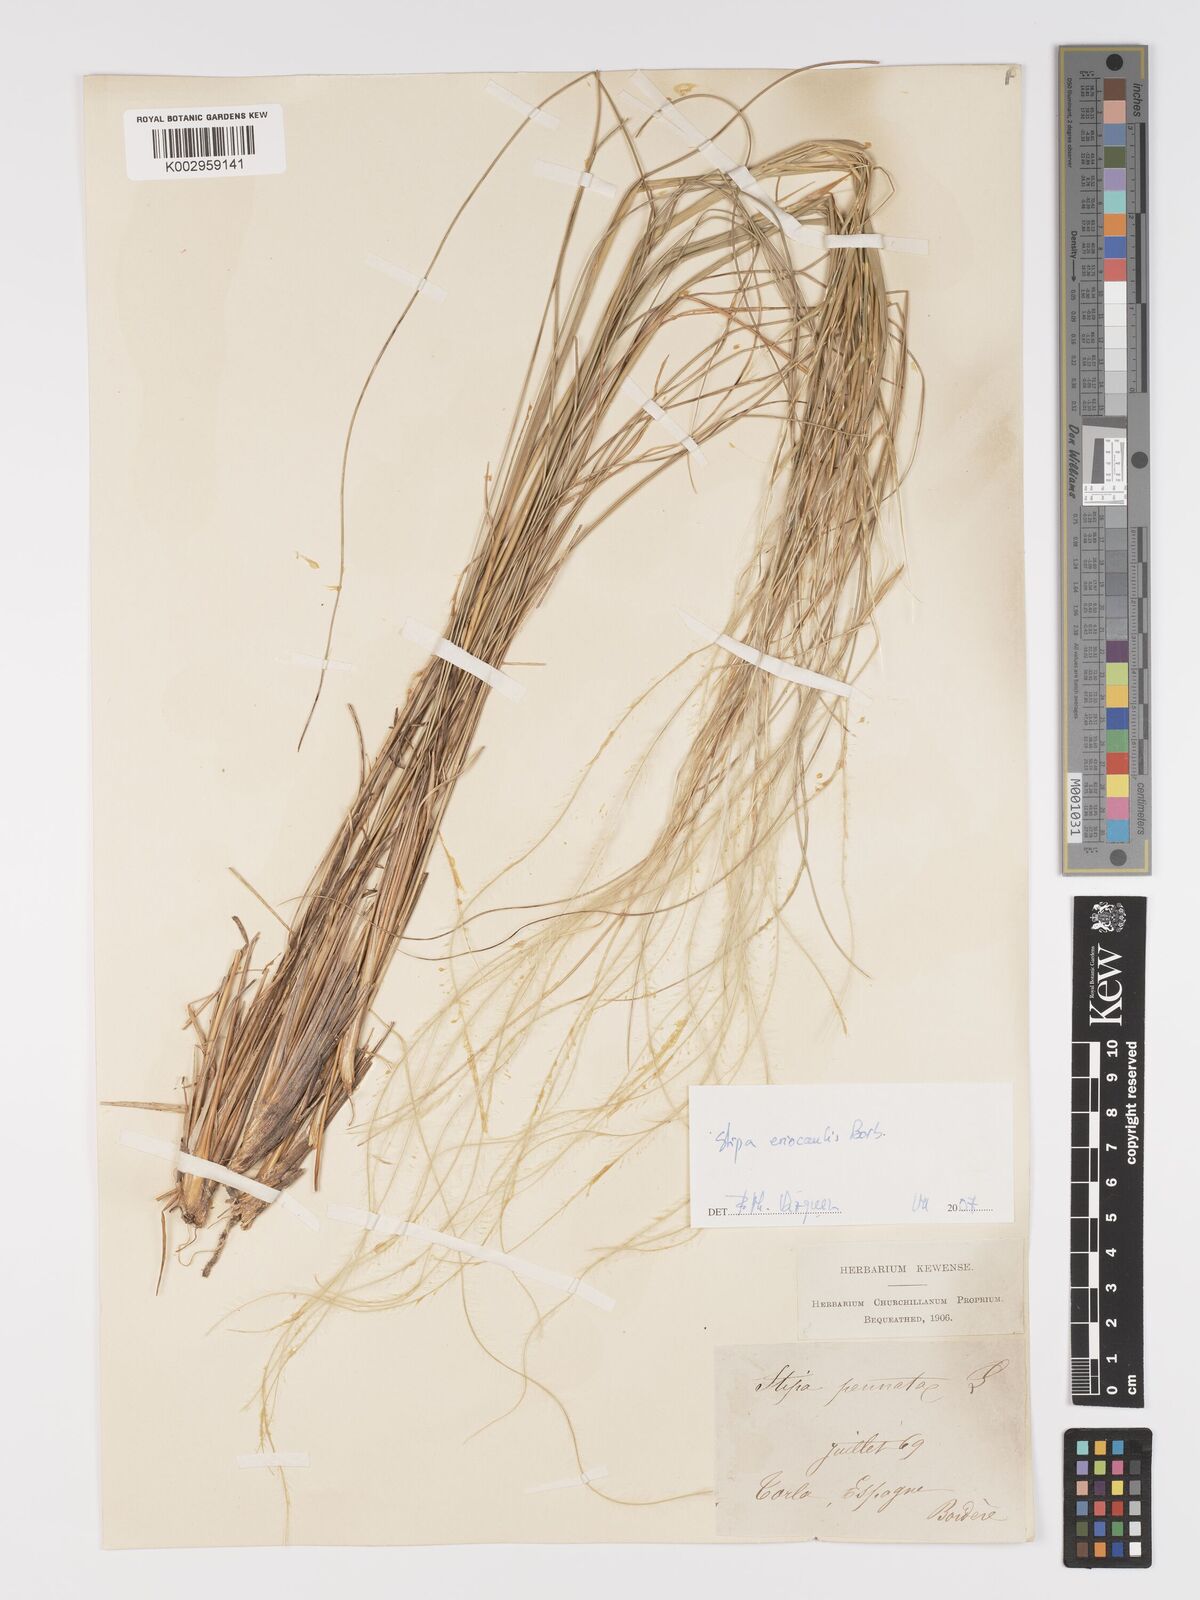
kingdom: Plantae
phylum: Tracheophyta
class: Liliopsida
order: Poales
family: Poaceae
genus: Stipa
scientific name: Stipa pennata
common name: European feather grass
